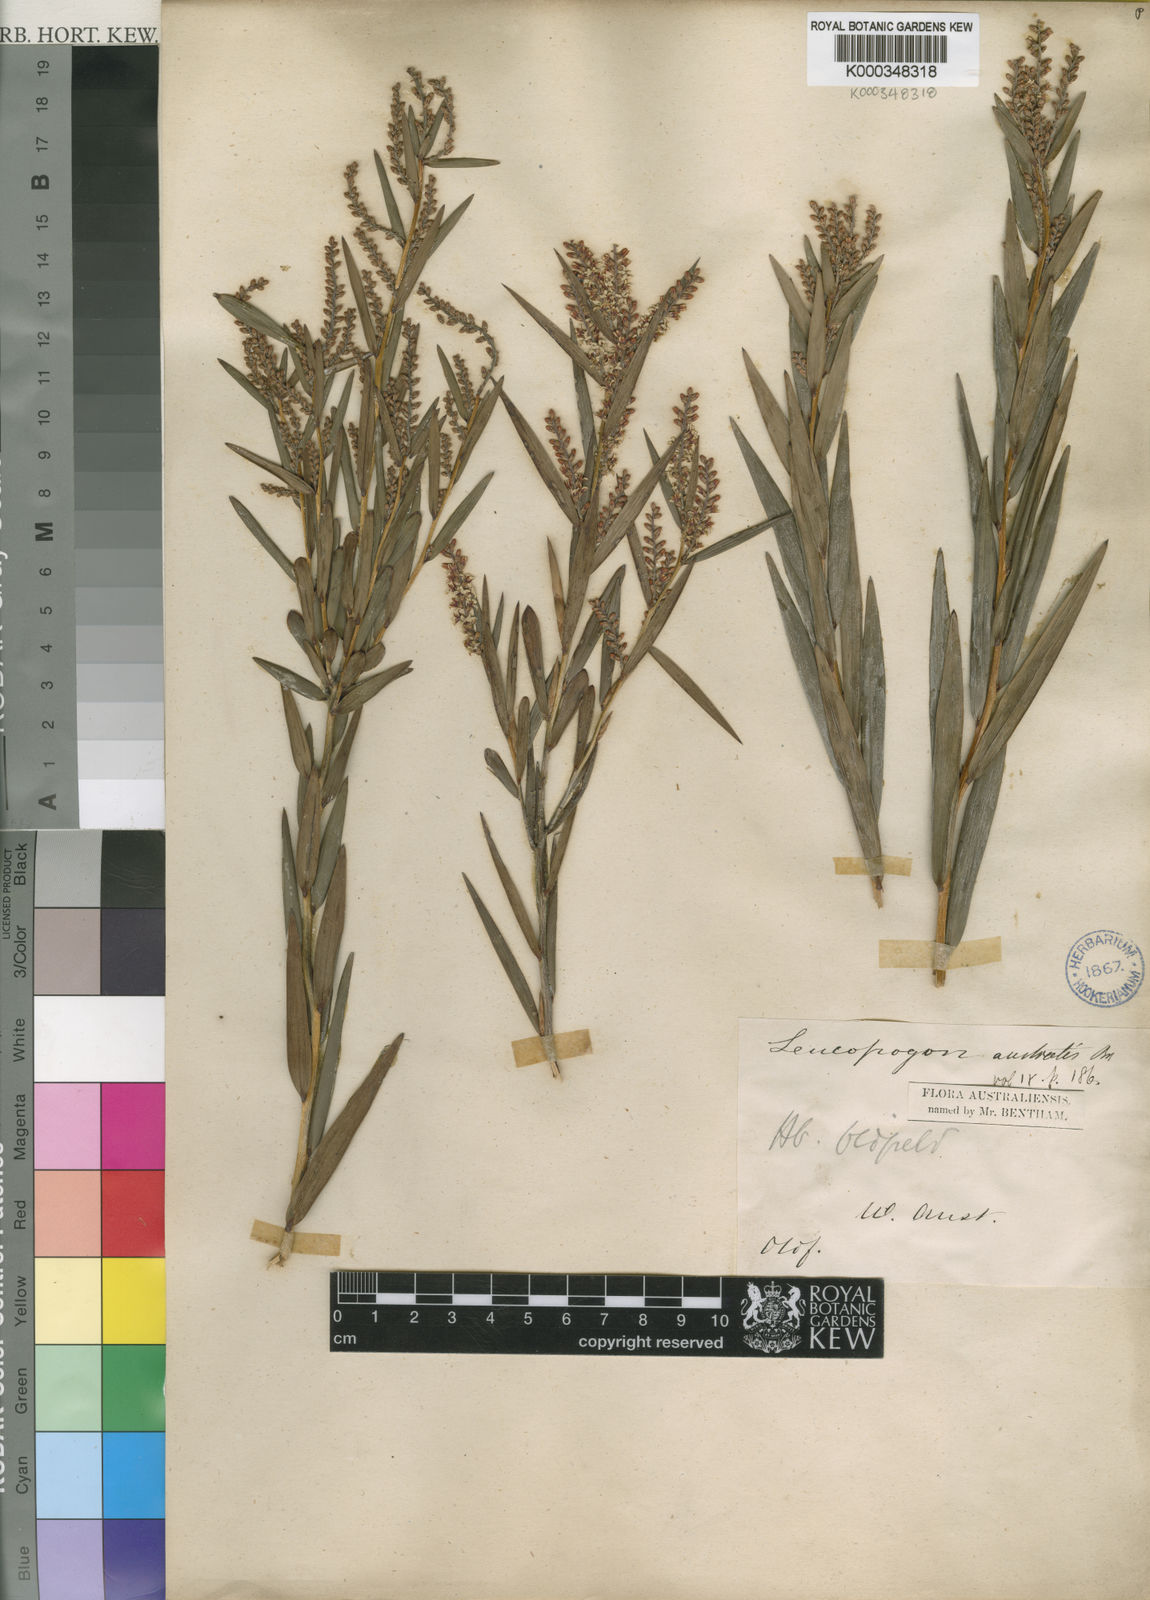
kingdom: Plantae
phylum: Tracheophyta
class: Magnoliopsida
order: Ericales
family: Ericaceae
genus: Leucopogon
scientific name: Leucopogon australis
